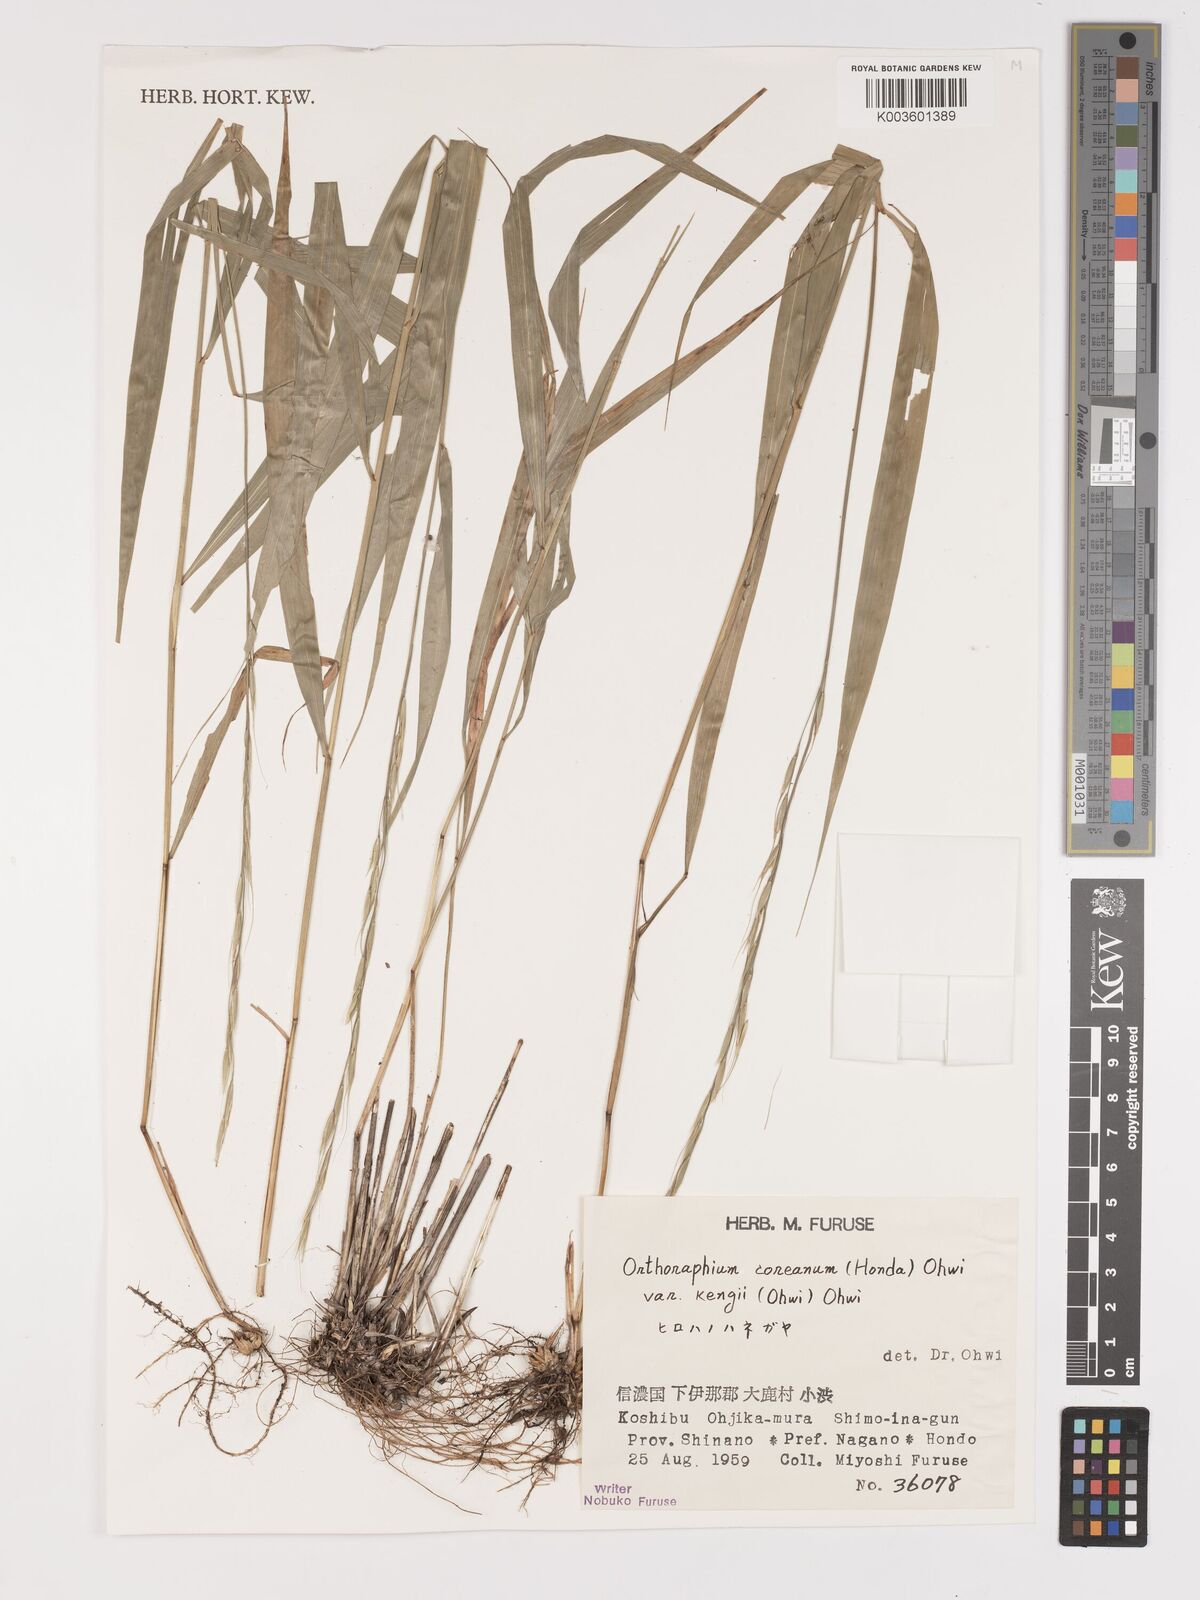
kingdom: Plantae
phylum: Tracheophyta
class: Liliopsida
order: Poales
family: Poaceae
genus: Patis
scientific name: Patis coreana
